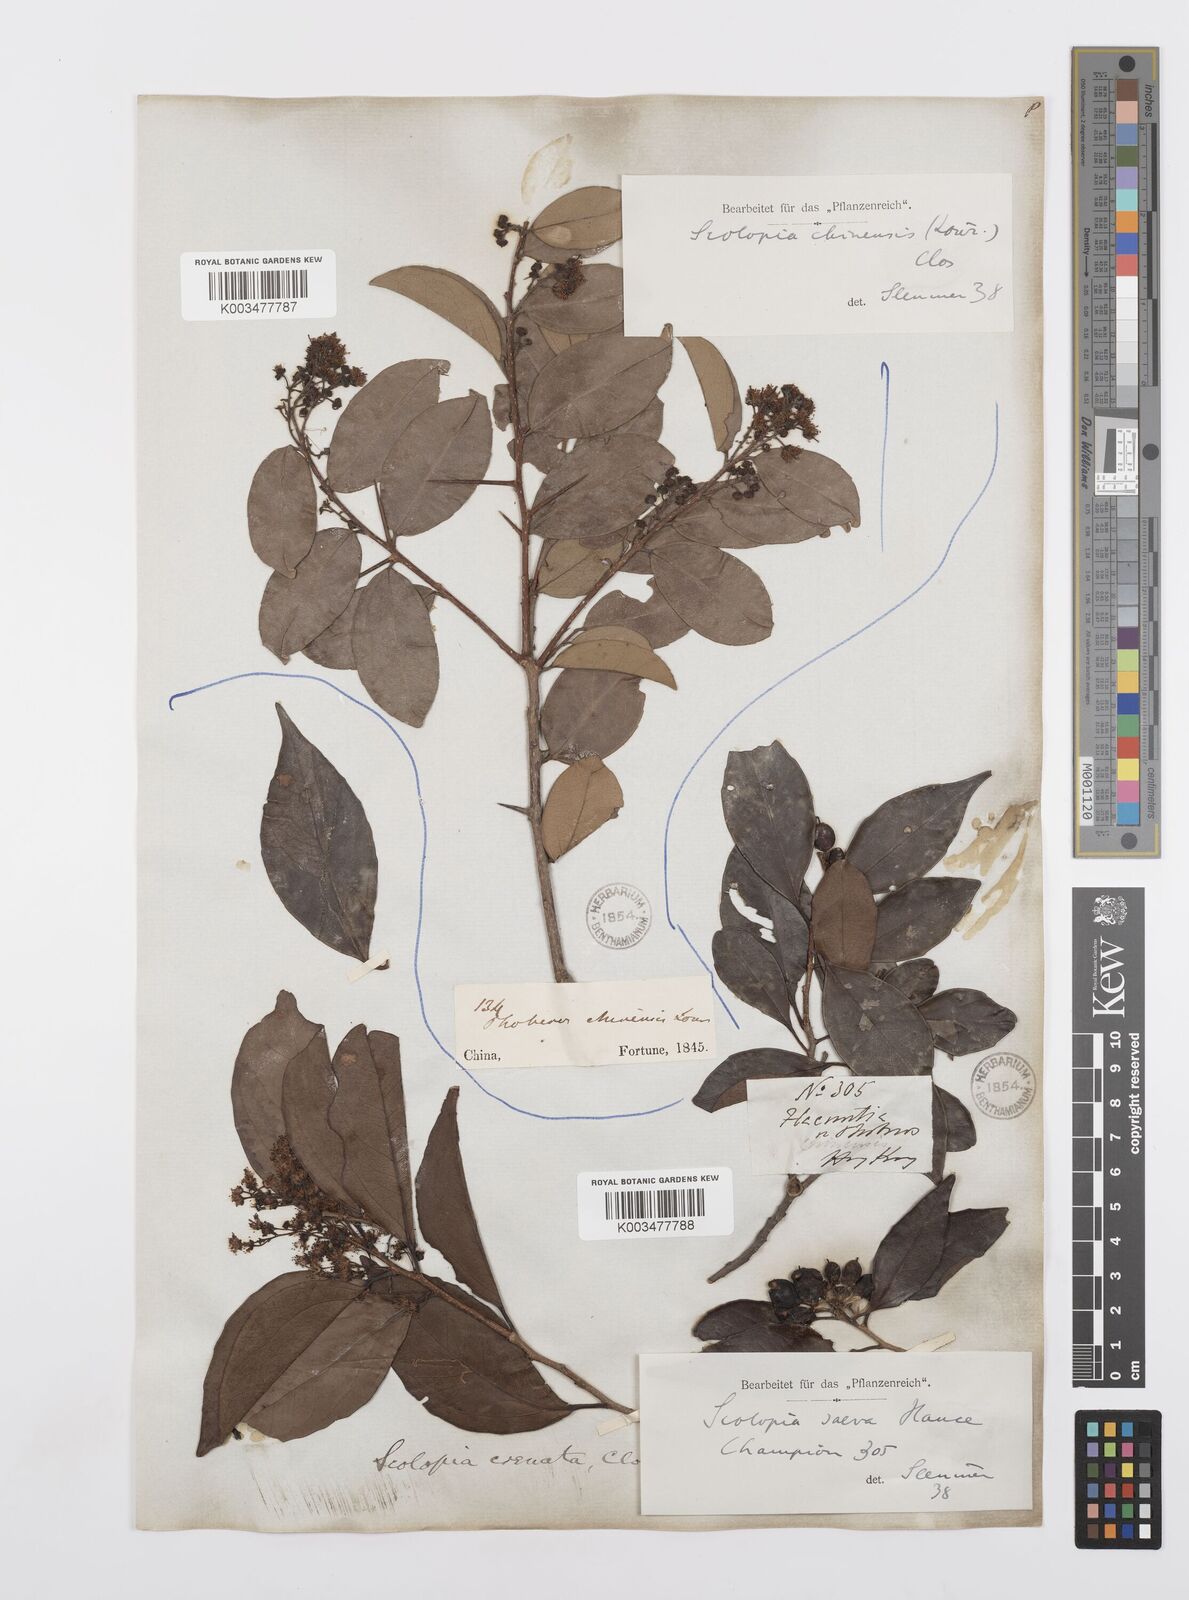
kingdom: Plantae
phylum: Tracheophyta
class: Magnoliopsida
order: Malpighiales
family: Salicaceae
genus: Scolopia
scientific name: Scolopia saeva
